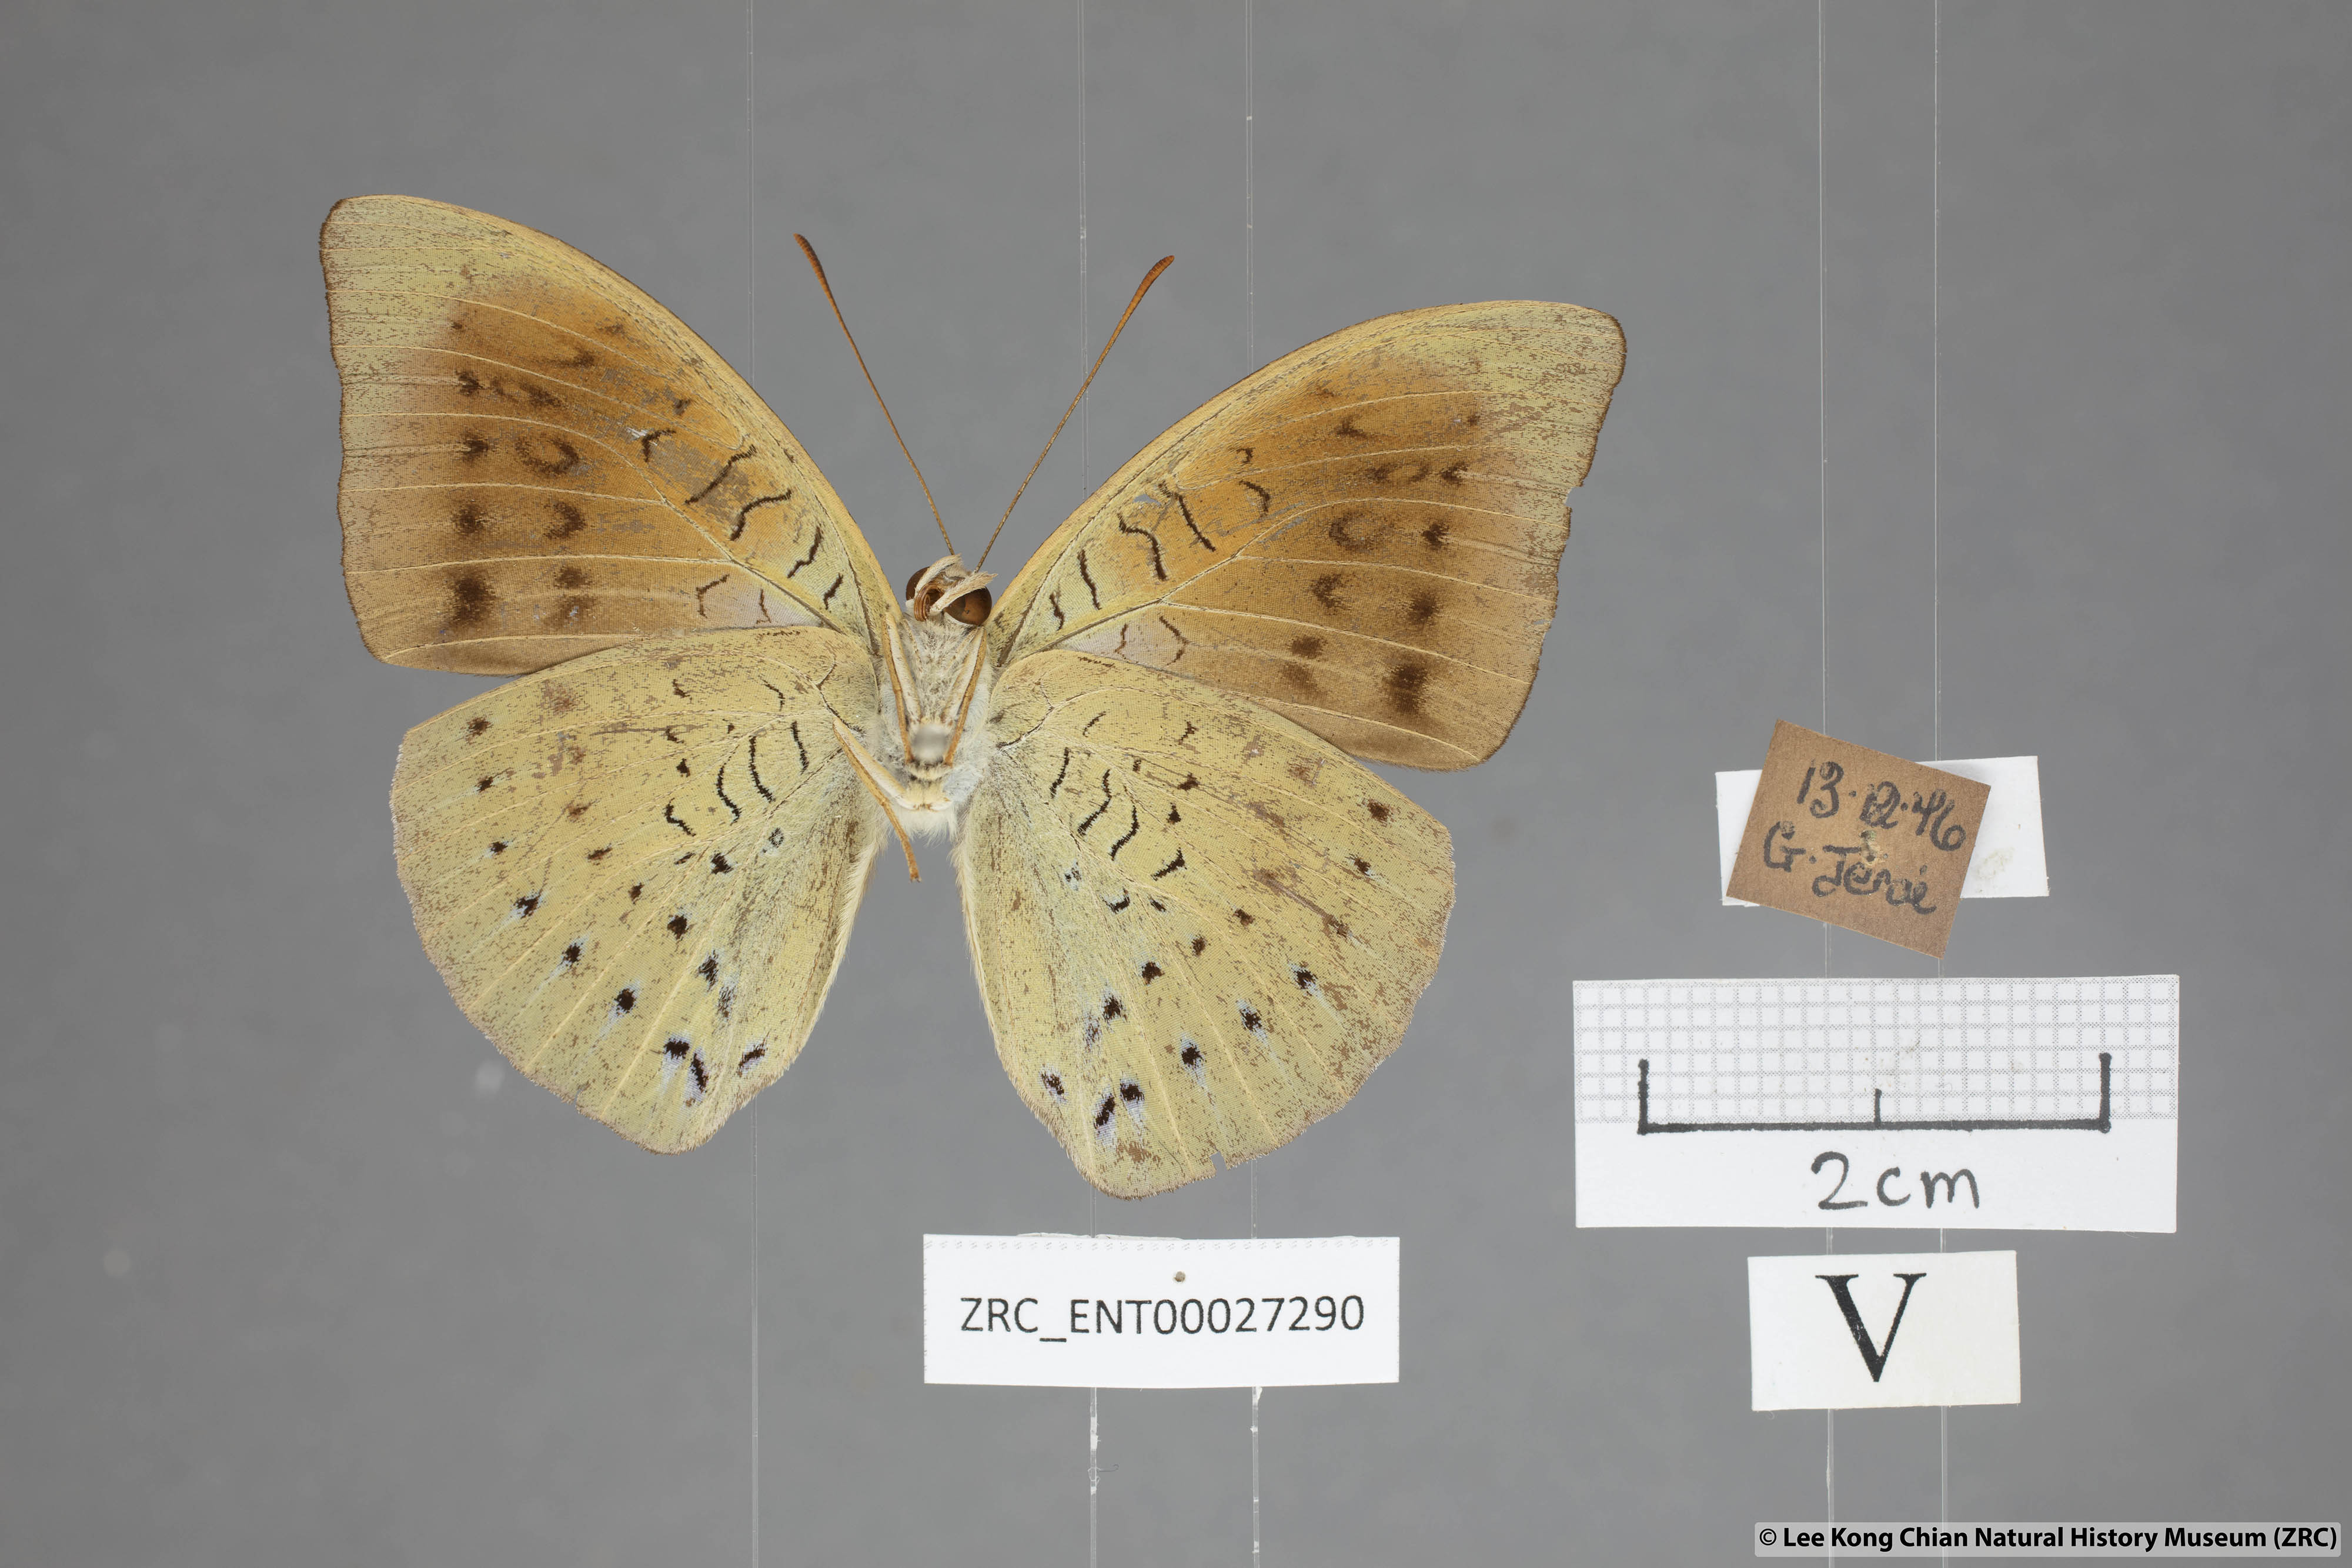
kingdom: Animalia
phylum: Arthropoda
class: Insecta
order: Lepidoptera
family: Nymphalidae
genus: Tanaecia
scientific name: Tanaecia julii
